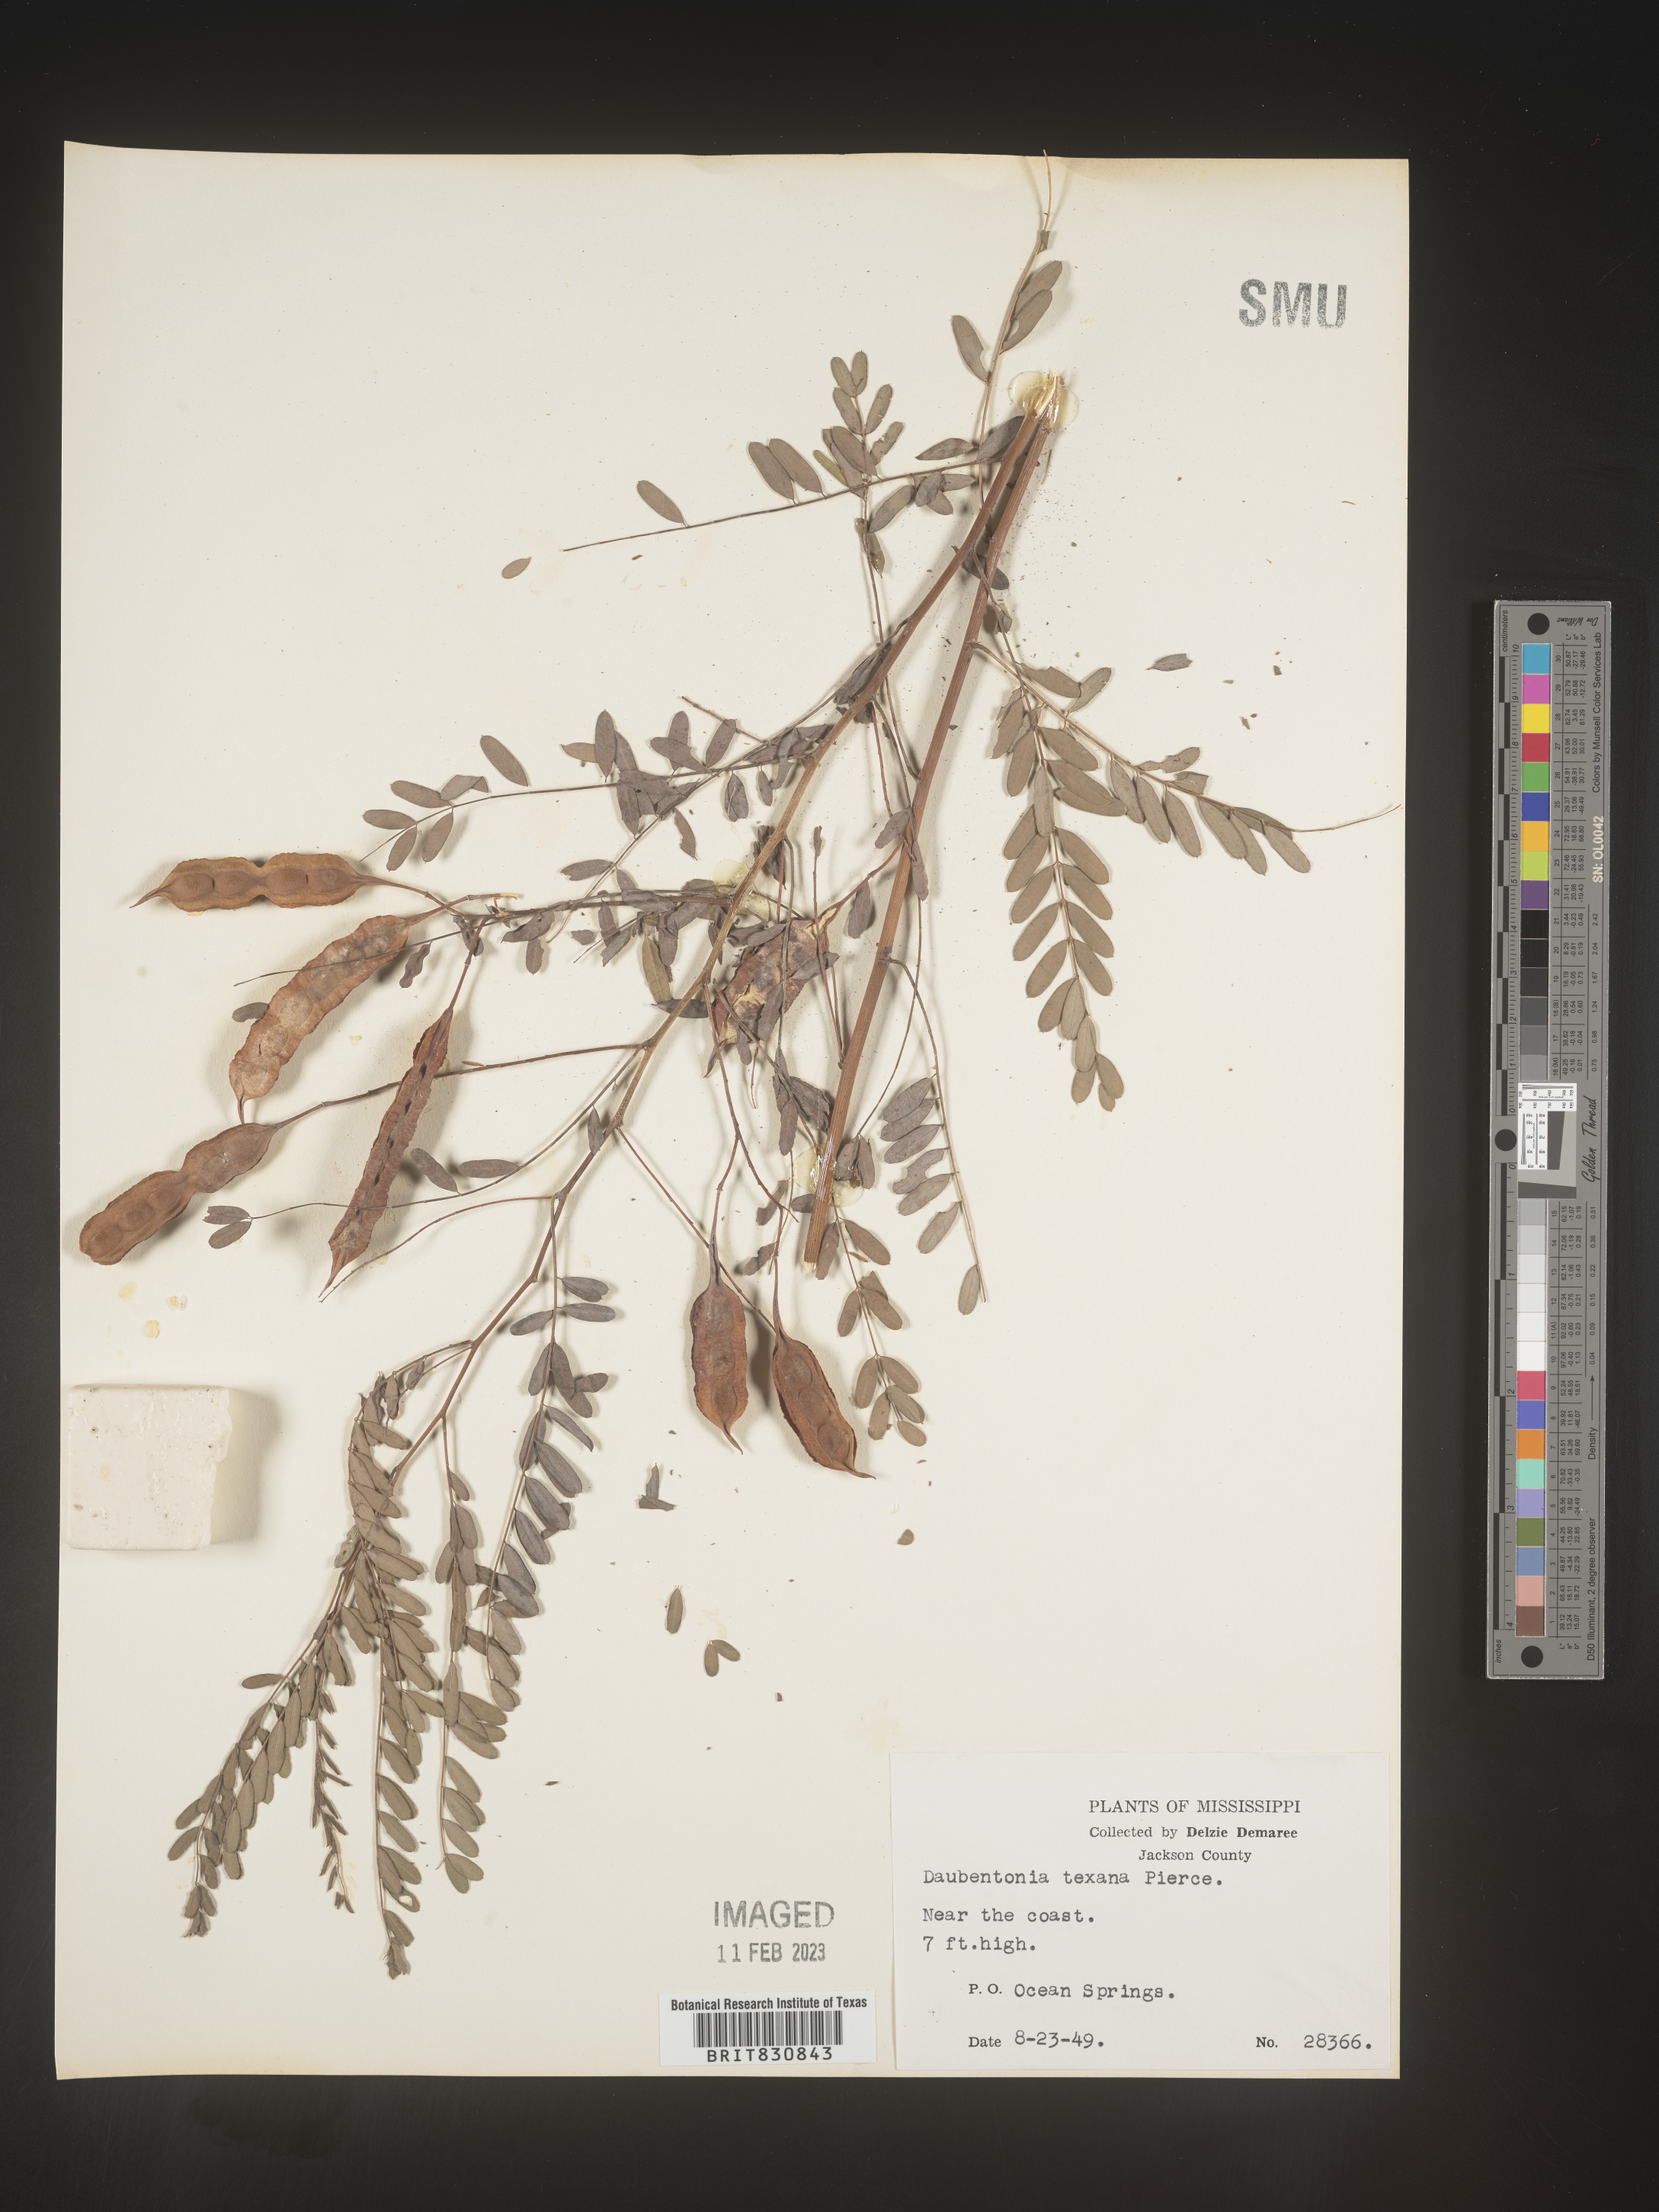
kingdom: Plantae
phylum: Tracheophyta
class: Magnoliopsida
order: Fabales
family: Fabaceae
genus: Sesbania
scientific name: Sesbania drummondii
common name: Poison-bean
